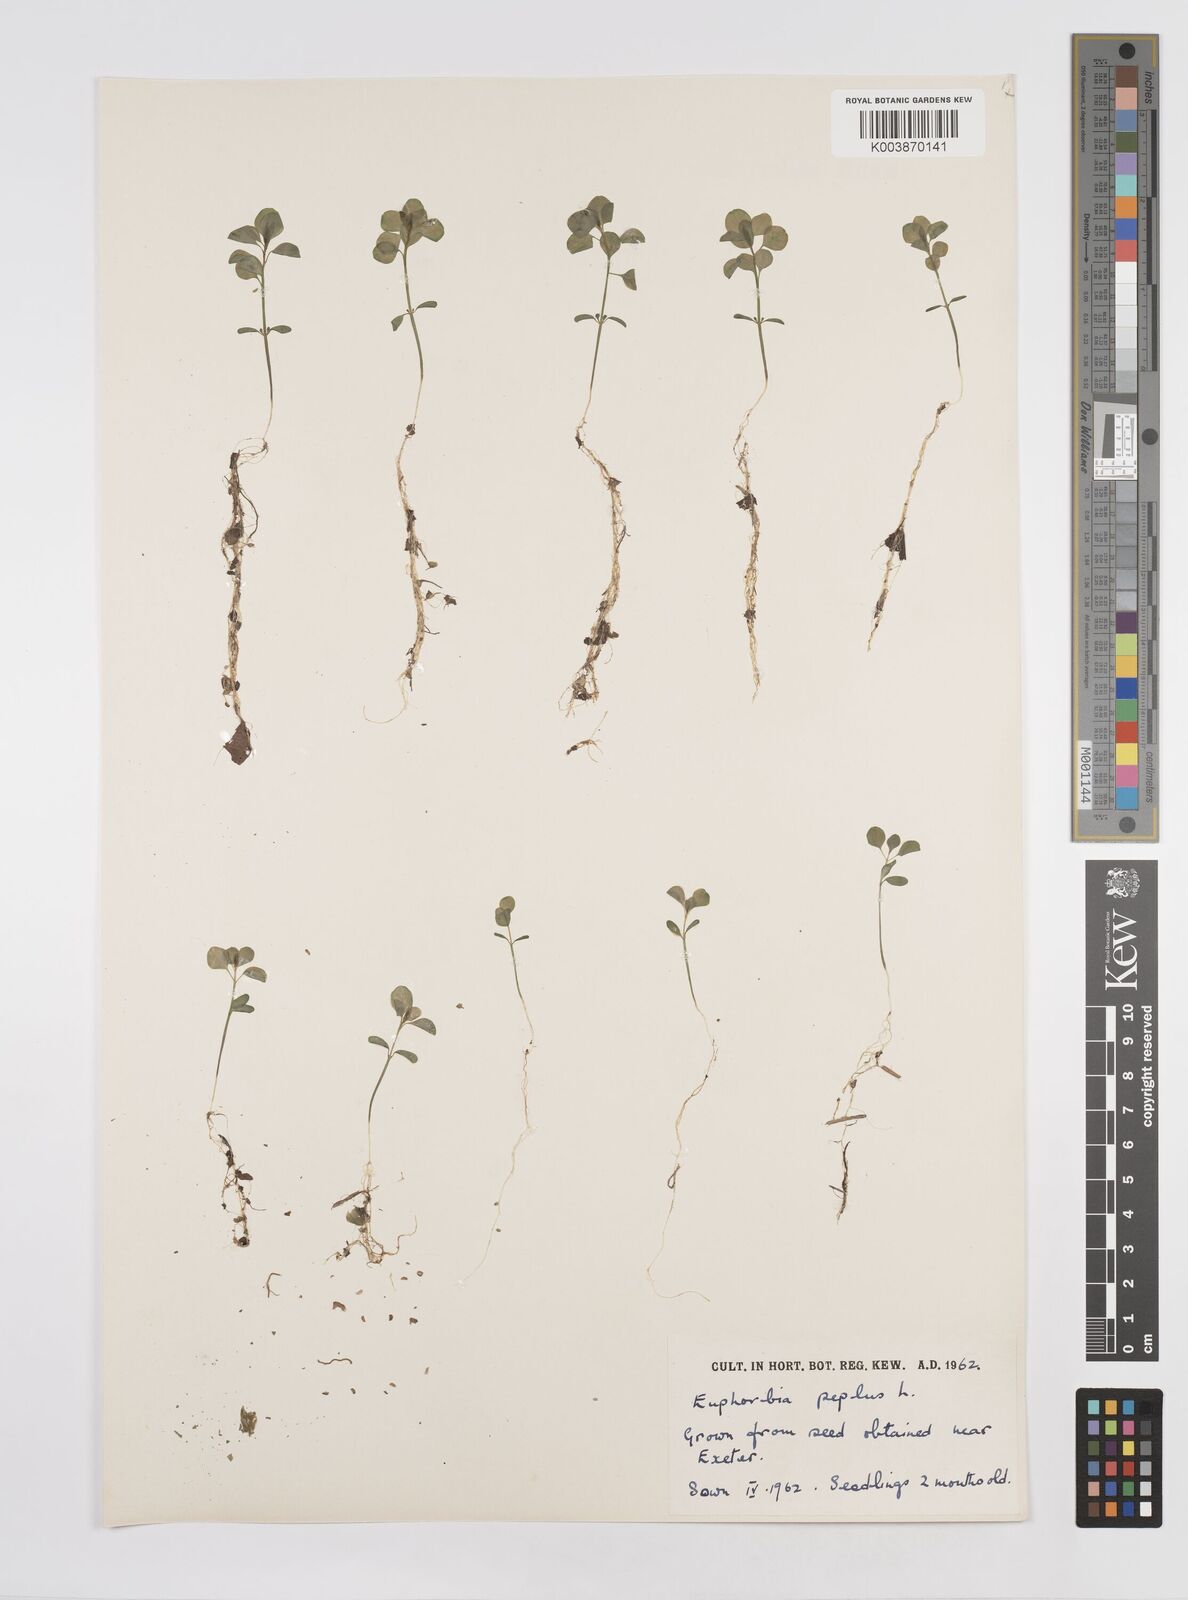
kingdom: Plantae
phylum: Tracheophyta
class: Magnoliopsida
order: Malpighiales
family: Euphorbiaceae
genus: Euphorbia
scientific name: Euphorbia peplus
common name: Petty spurge
